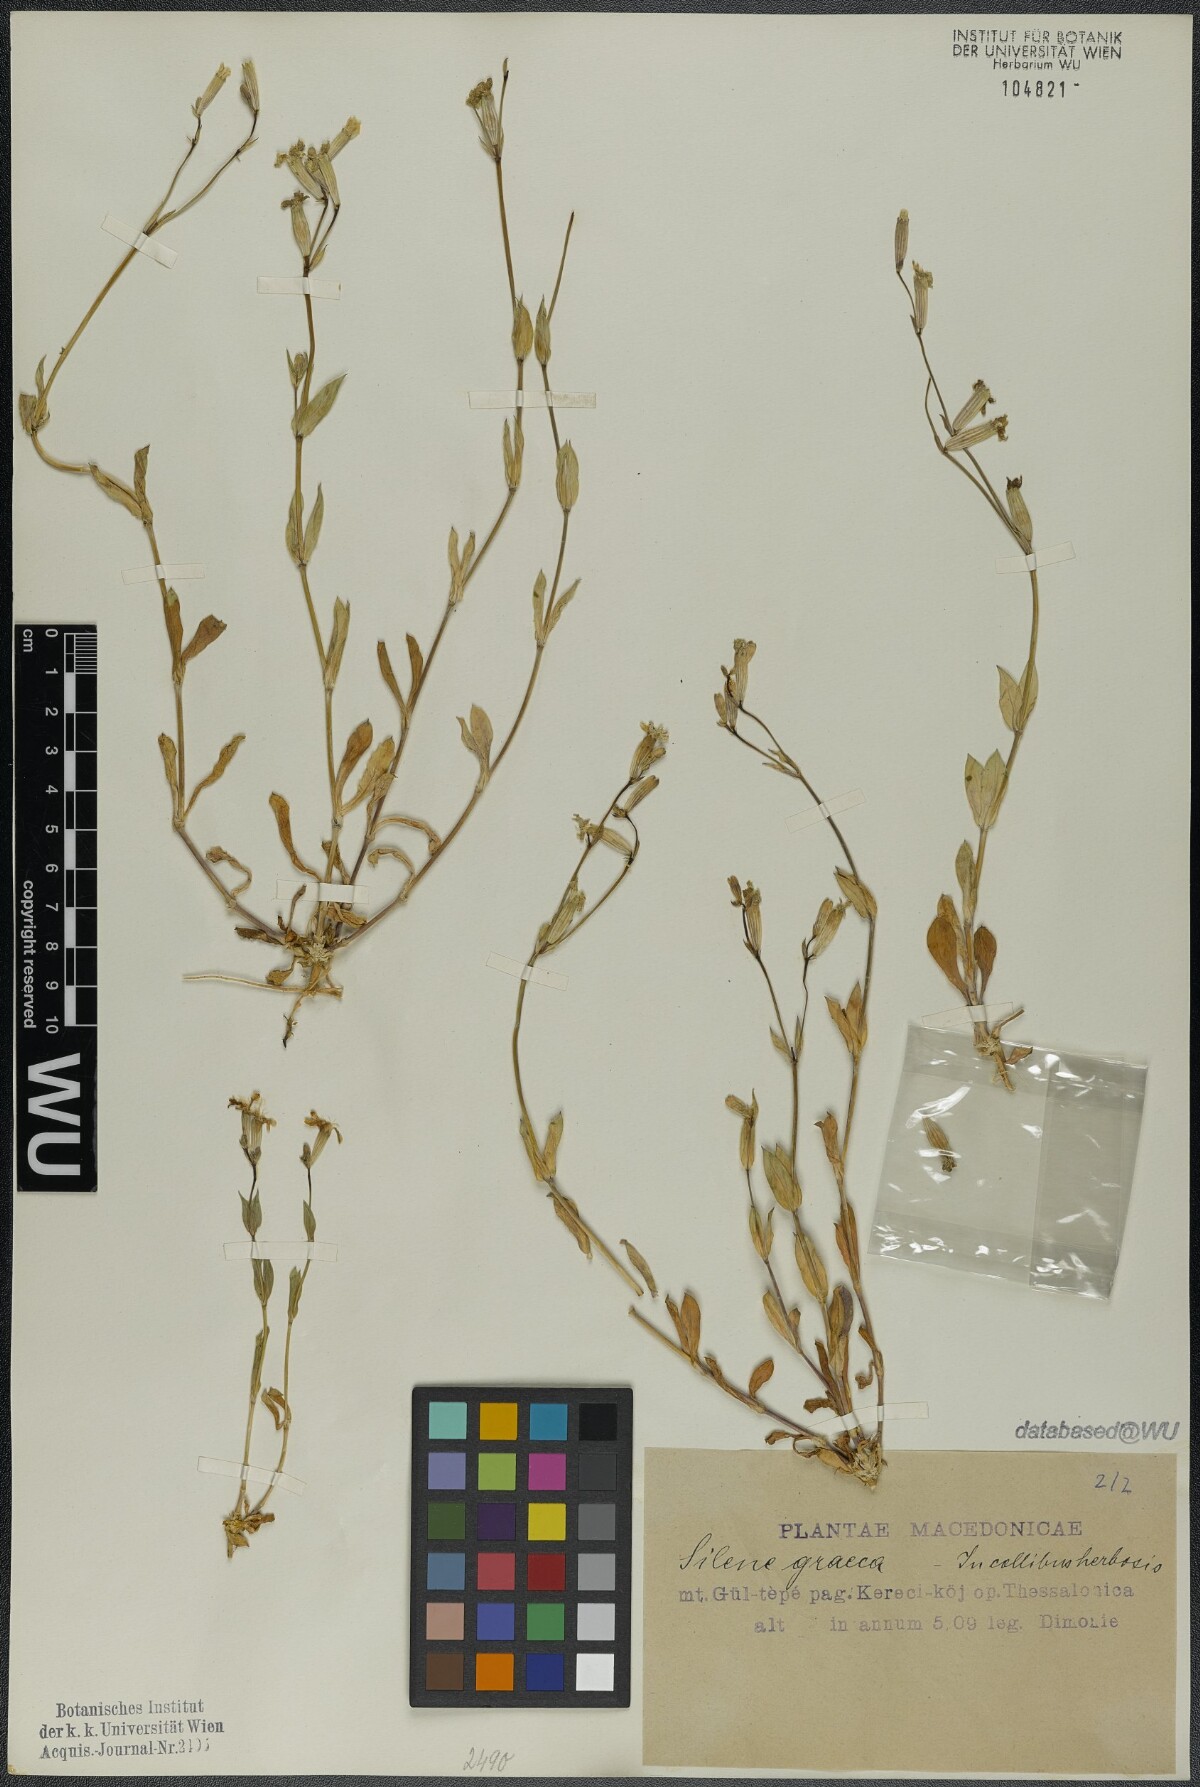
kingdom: Plantae
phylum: Tracheophyta
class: Magnoliopsida
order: Caryophyllales
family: Caryophyllaceae
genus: Silene
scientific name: Silene graeca
